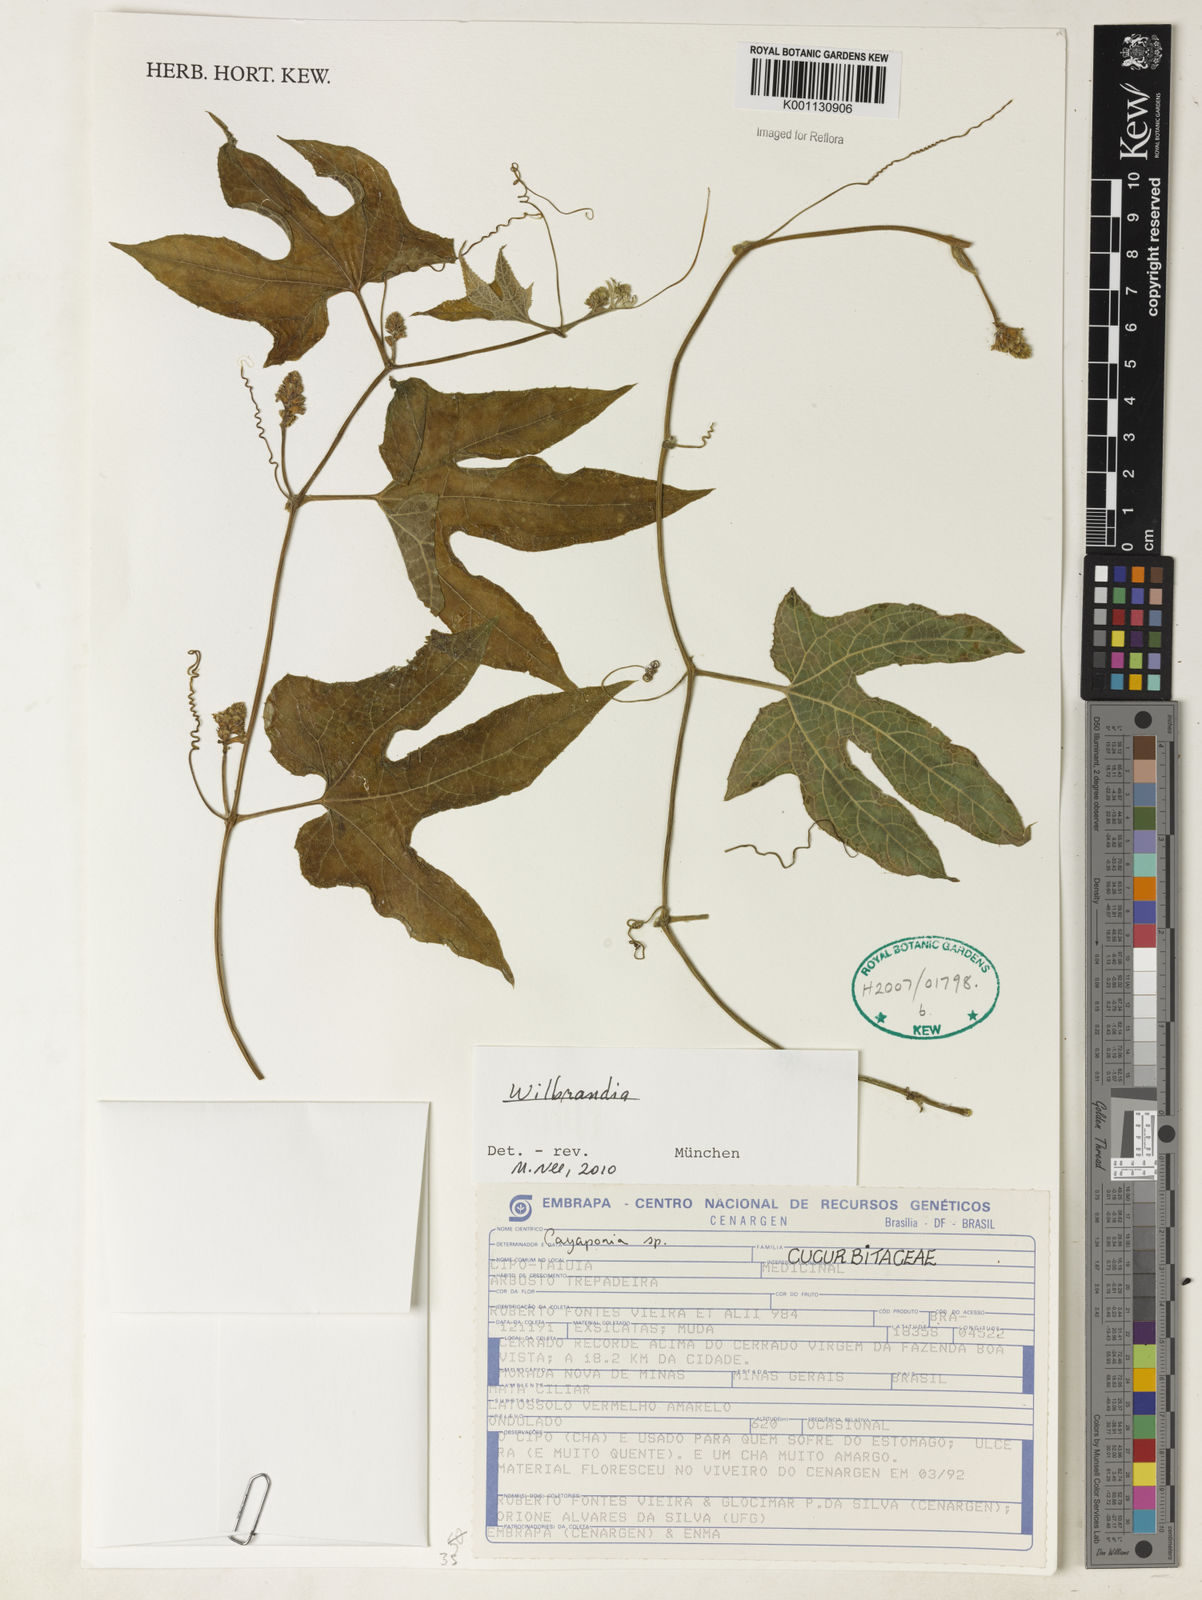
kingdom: Plantae
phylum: Tracheophyta
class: Magnoliopsida
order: Cucurbitales
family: Cucurbitaceae
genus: Wilbrandia
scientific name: Wilbrandia
